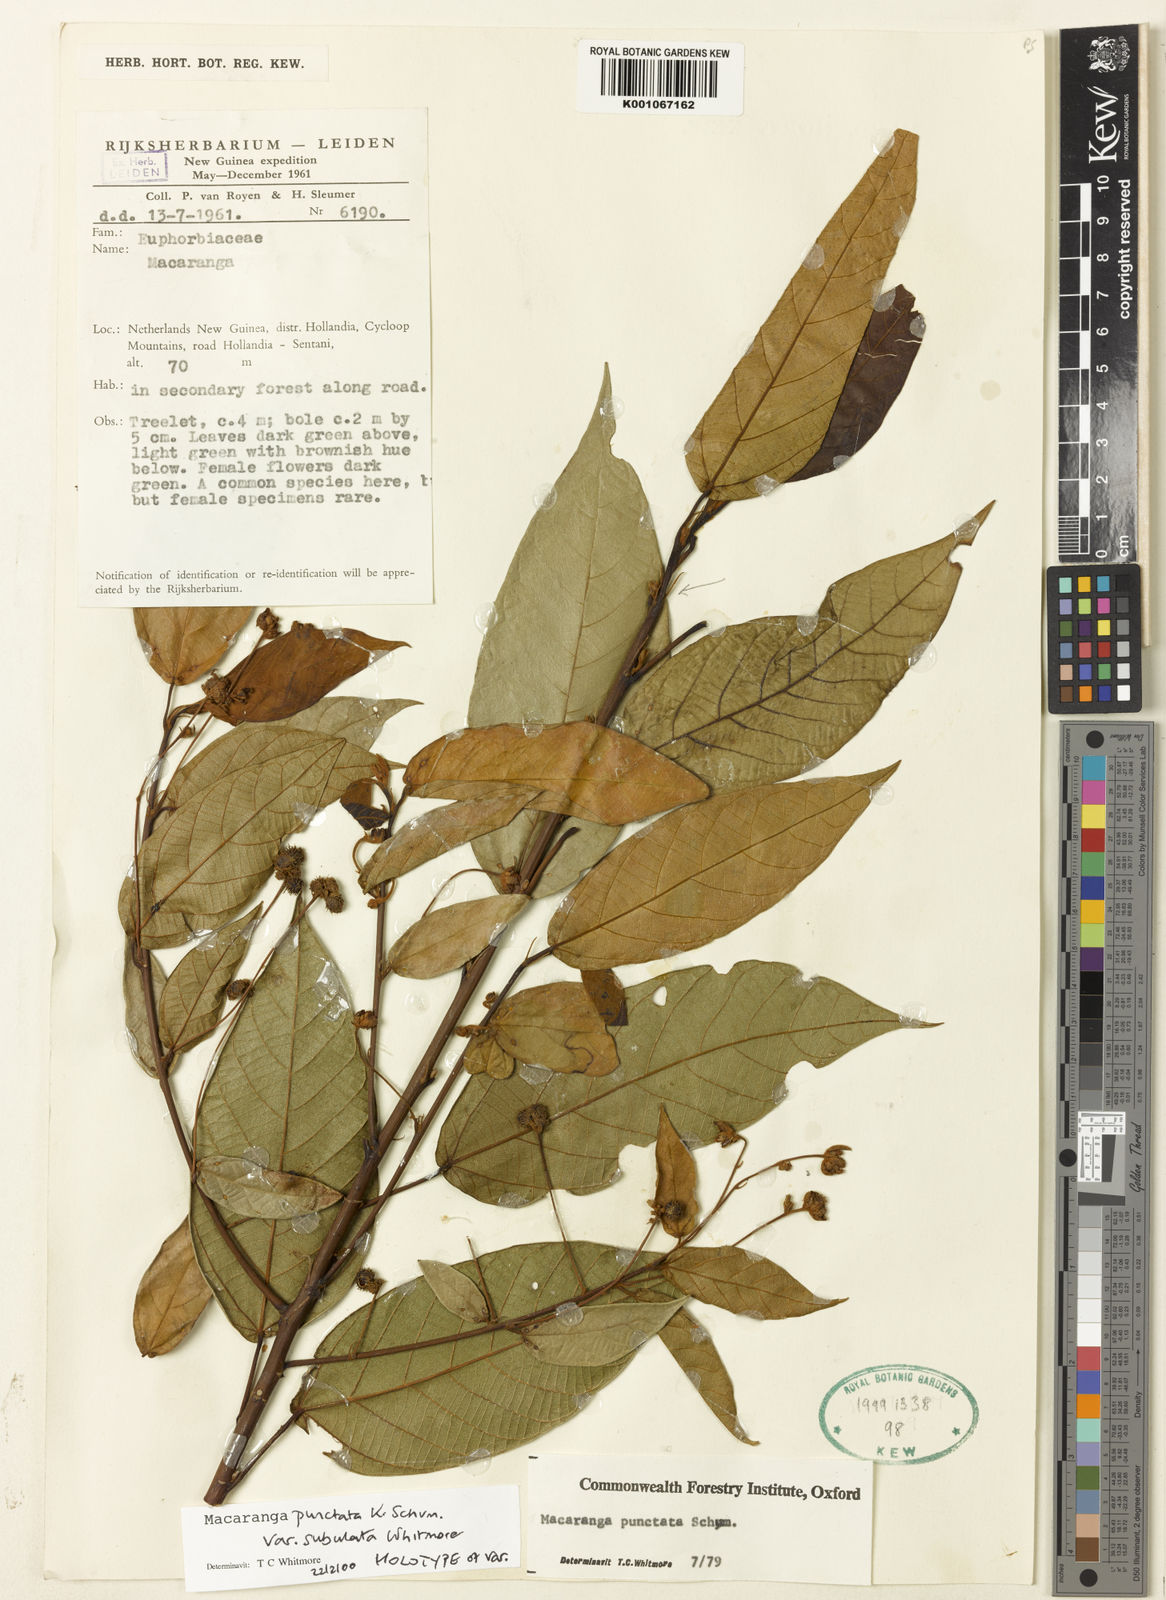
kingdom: Plantae
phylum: Tracheophyta
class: Magnoliopsida
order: Malpighiales
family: Euphorbiaceae
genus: Macaranga
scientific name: Macaranga punctata
